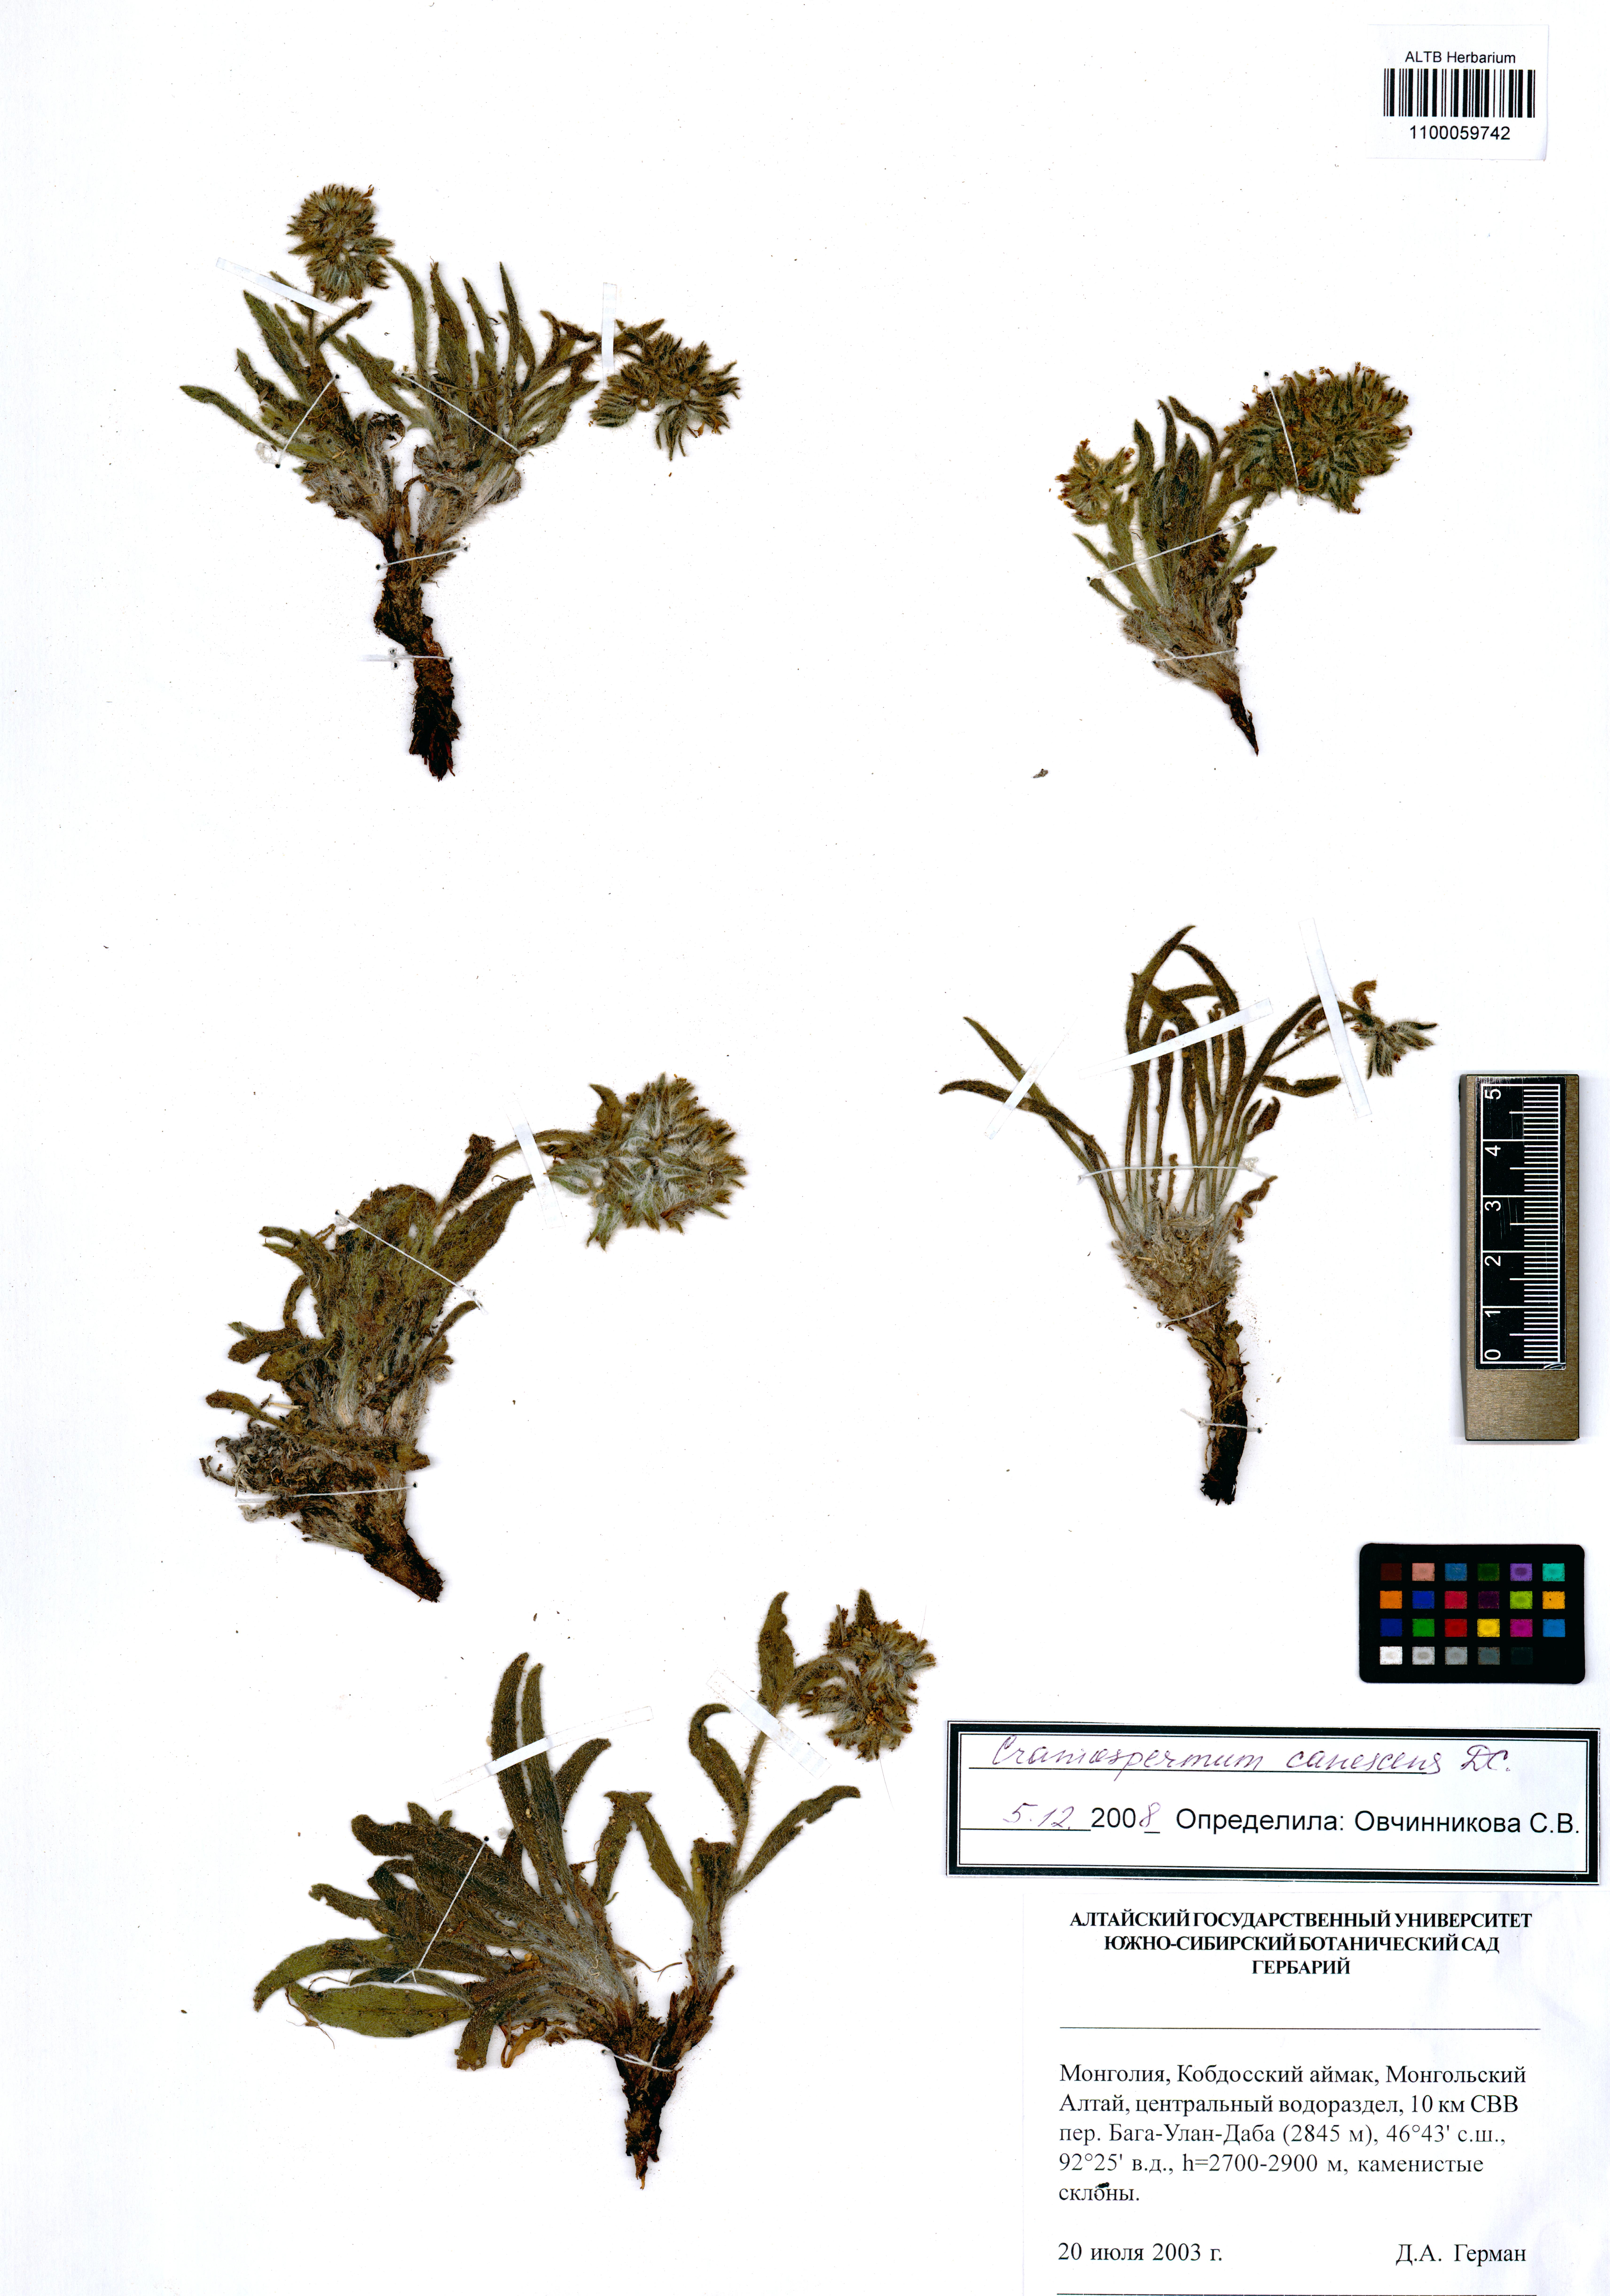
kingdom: Plantae
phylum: Tracheophyta
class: Magnoliopsida
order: Boraginales
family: Boraginaceae
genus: Craniospermum
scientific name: Craniospermum canescens
